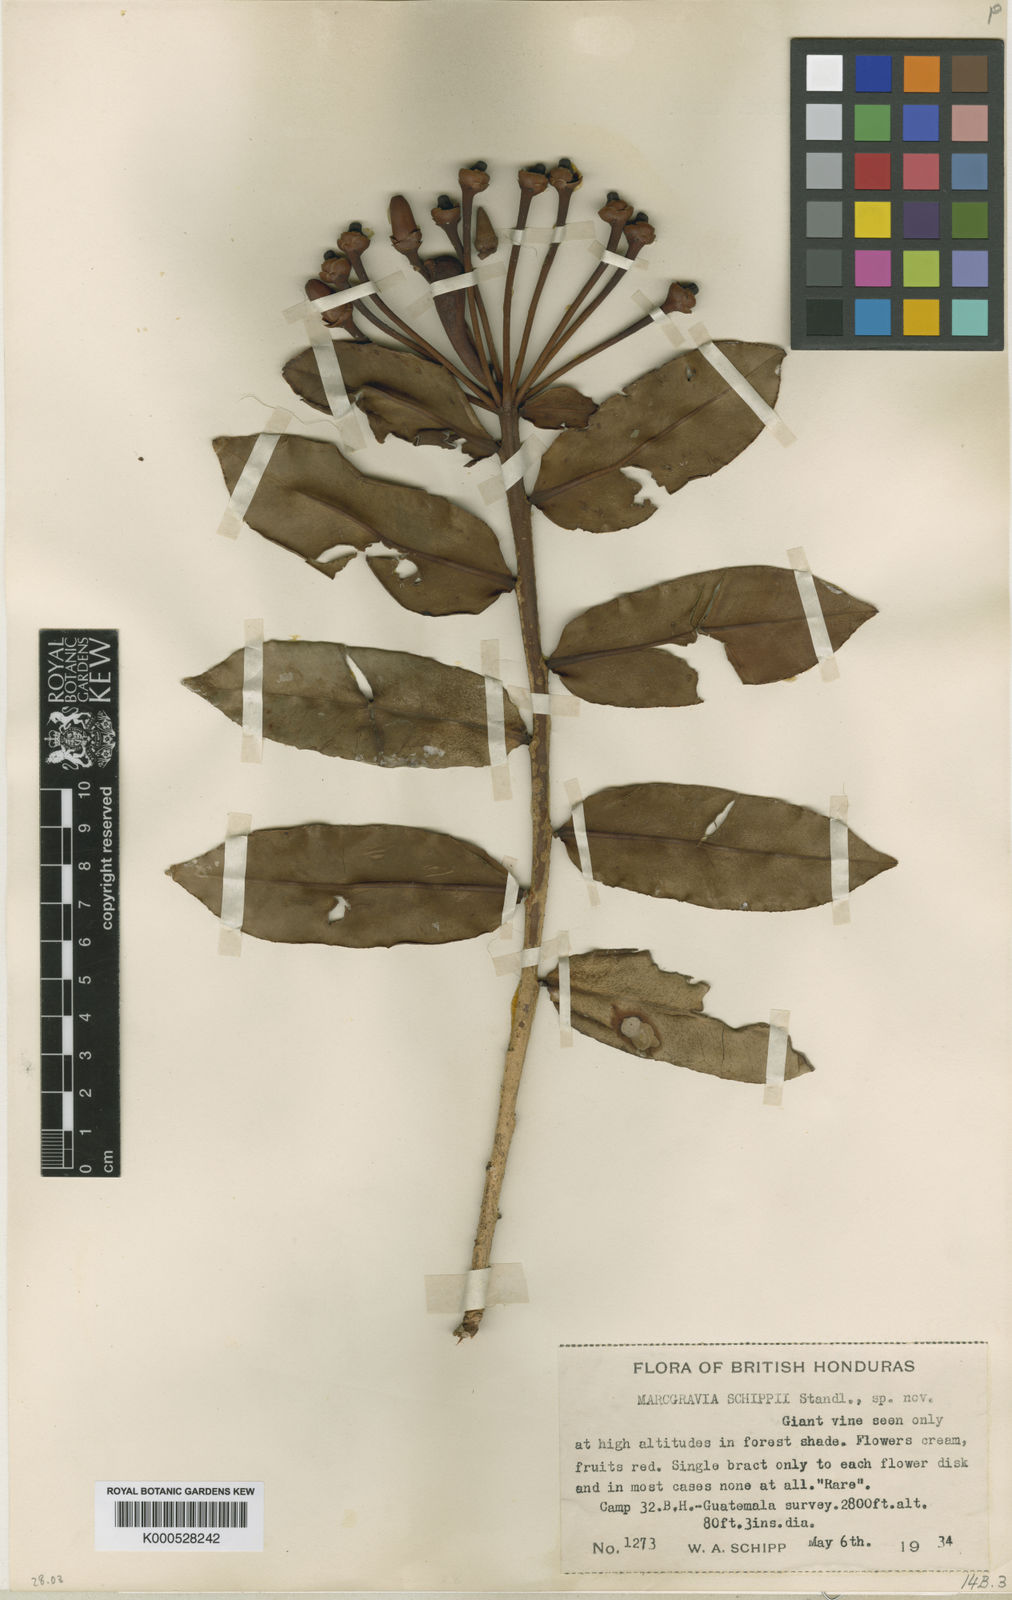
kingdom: Plantae
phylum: Tracheophyta
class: Magnoliopsida
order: Ericales
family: Marcgraviaceae
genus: Marcgravia
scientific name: Marcgravia nepenthoides
